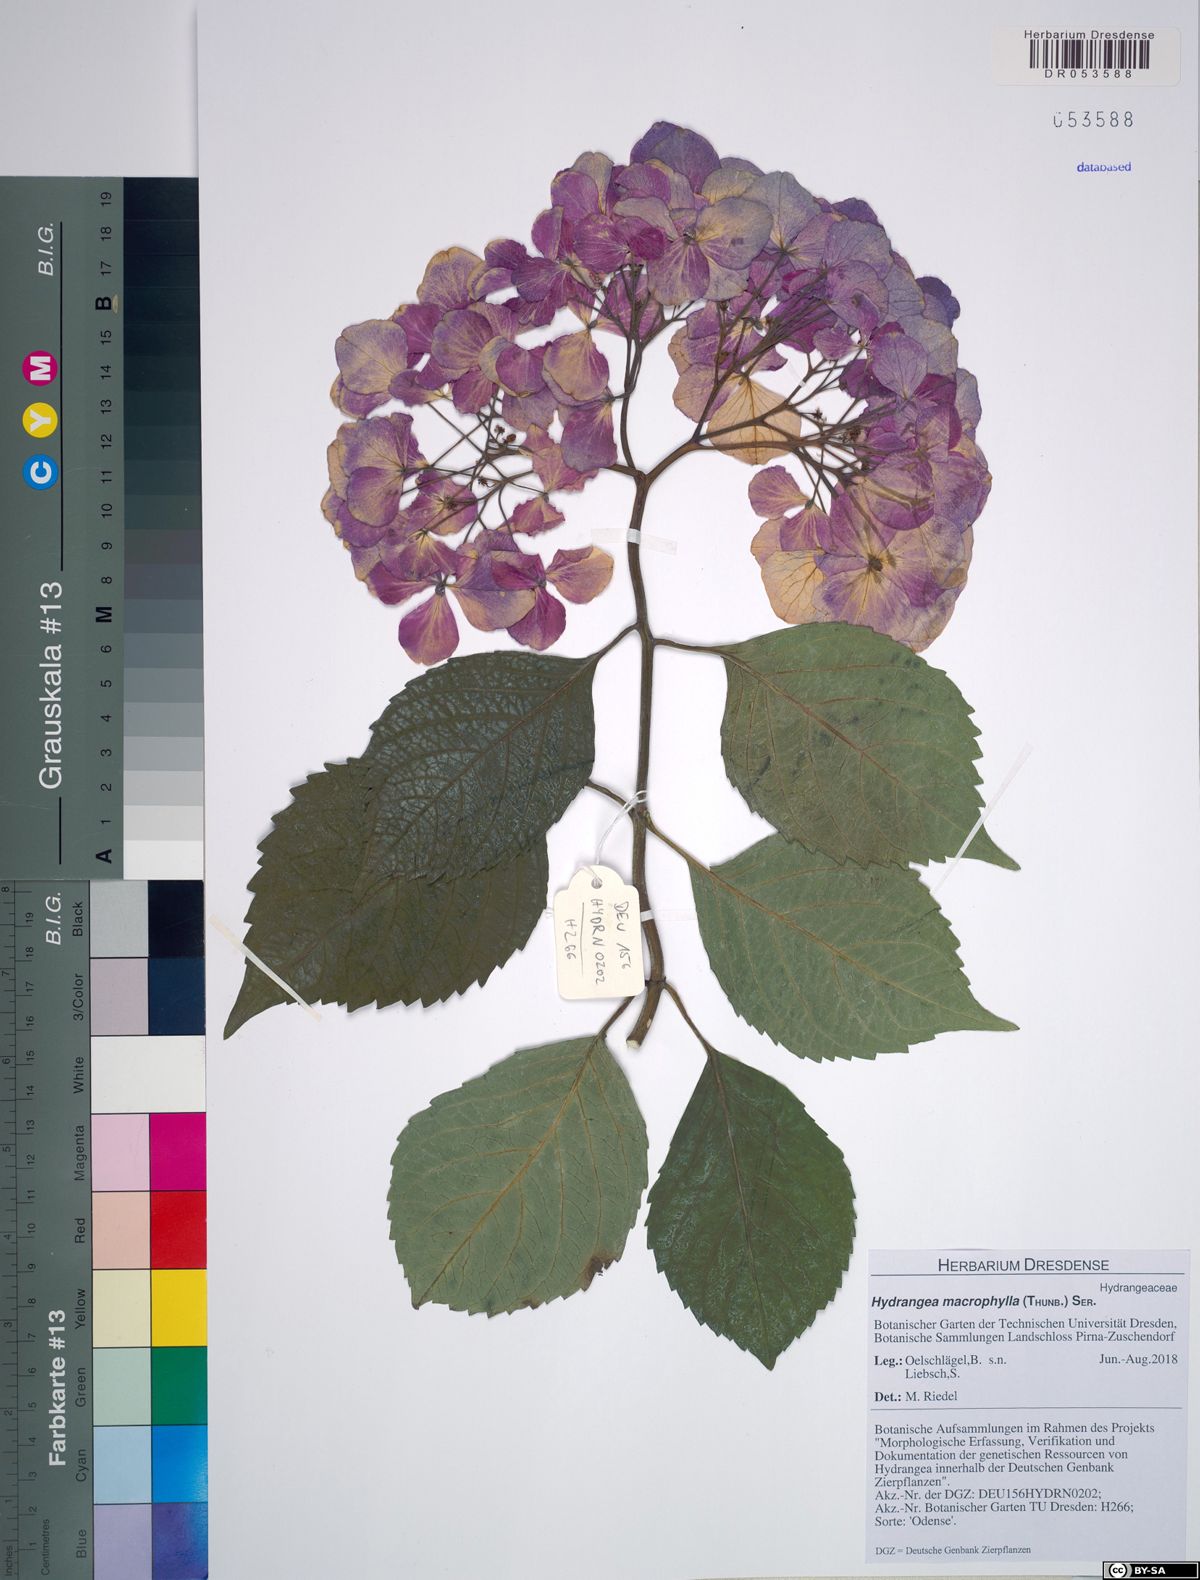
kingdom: Plantae
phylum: Tracheophyta
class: Magnoliopsida
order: Cornales
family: Hydrangeaceae
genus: Hydrangea
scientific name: Hydrangea macrophylla
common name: Hydrangea
